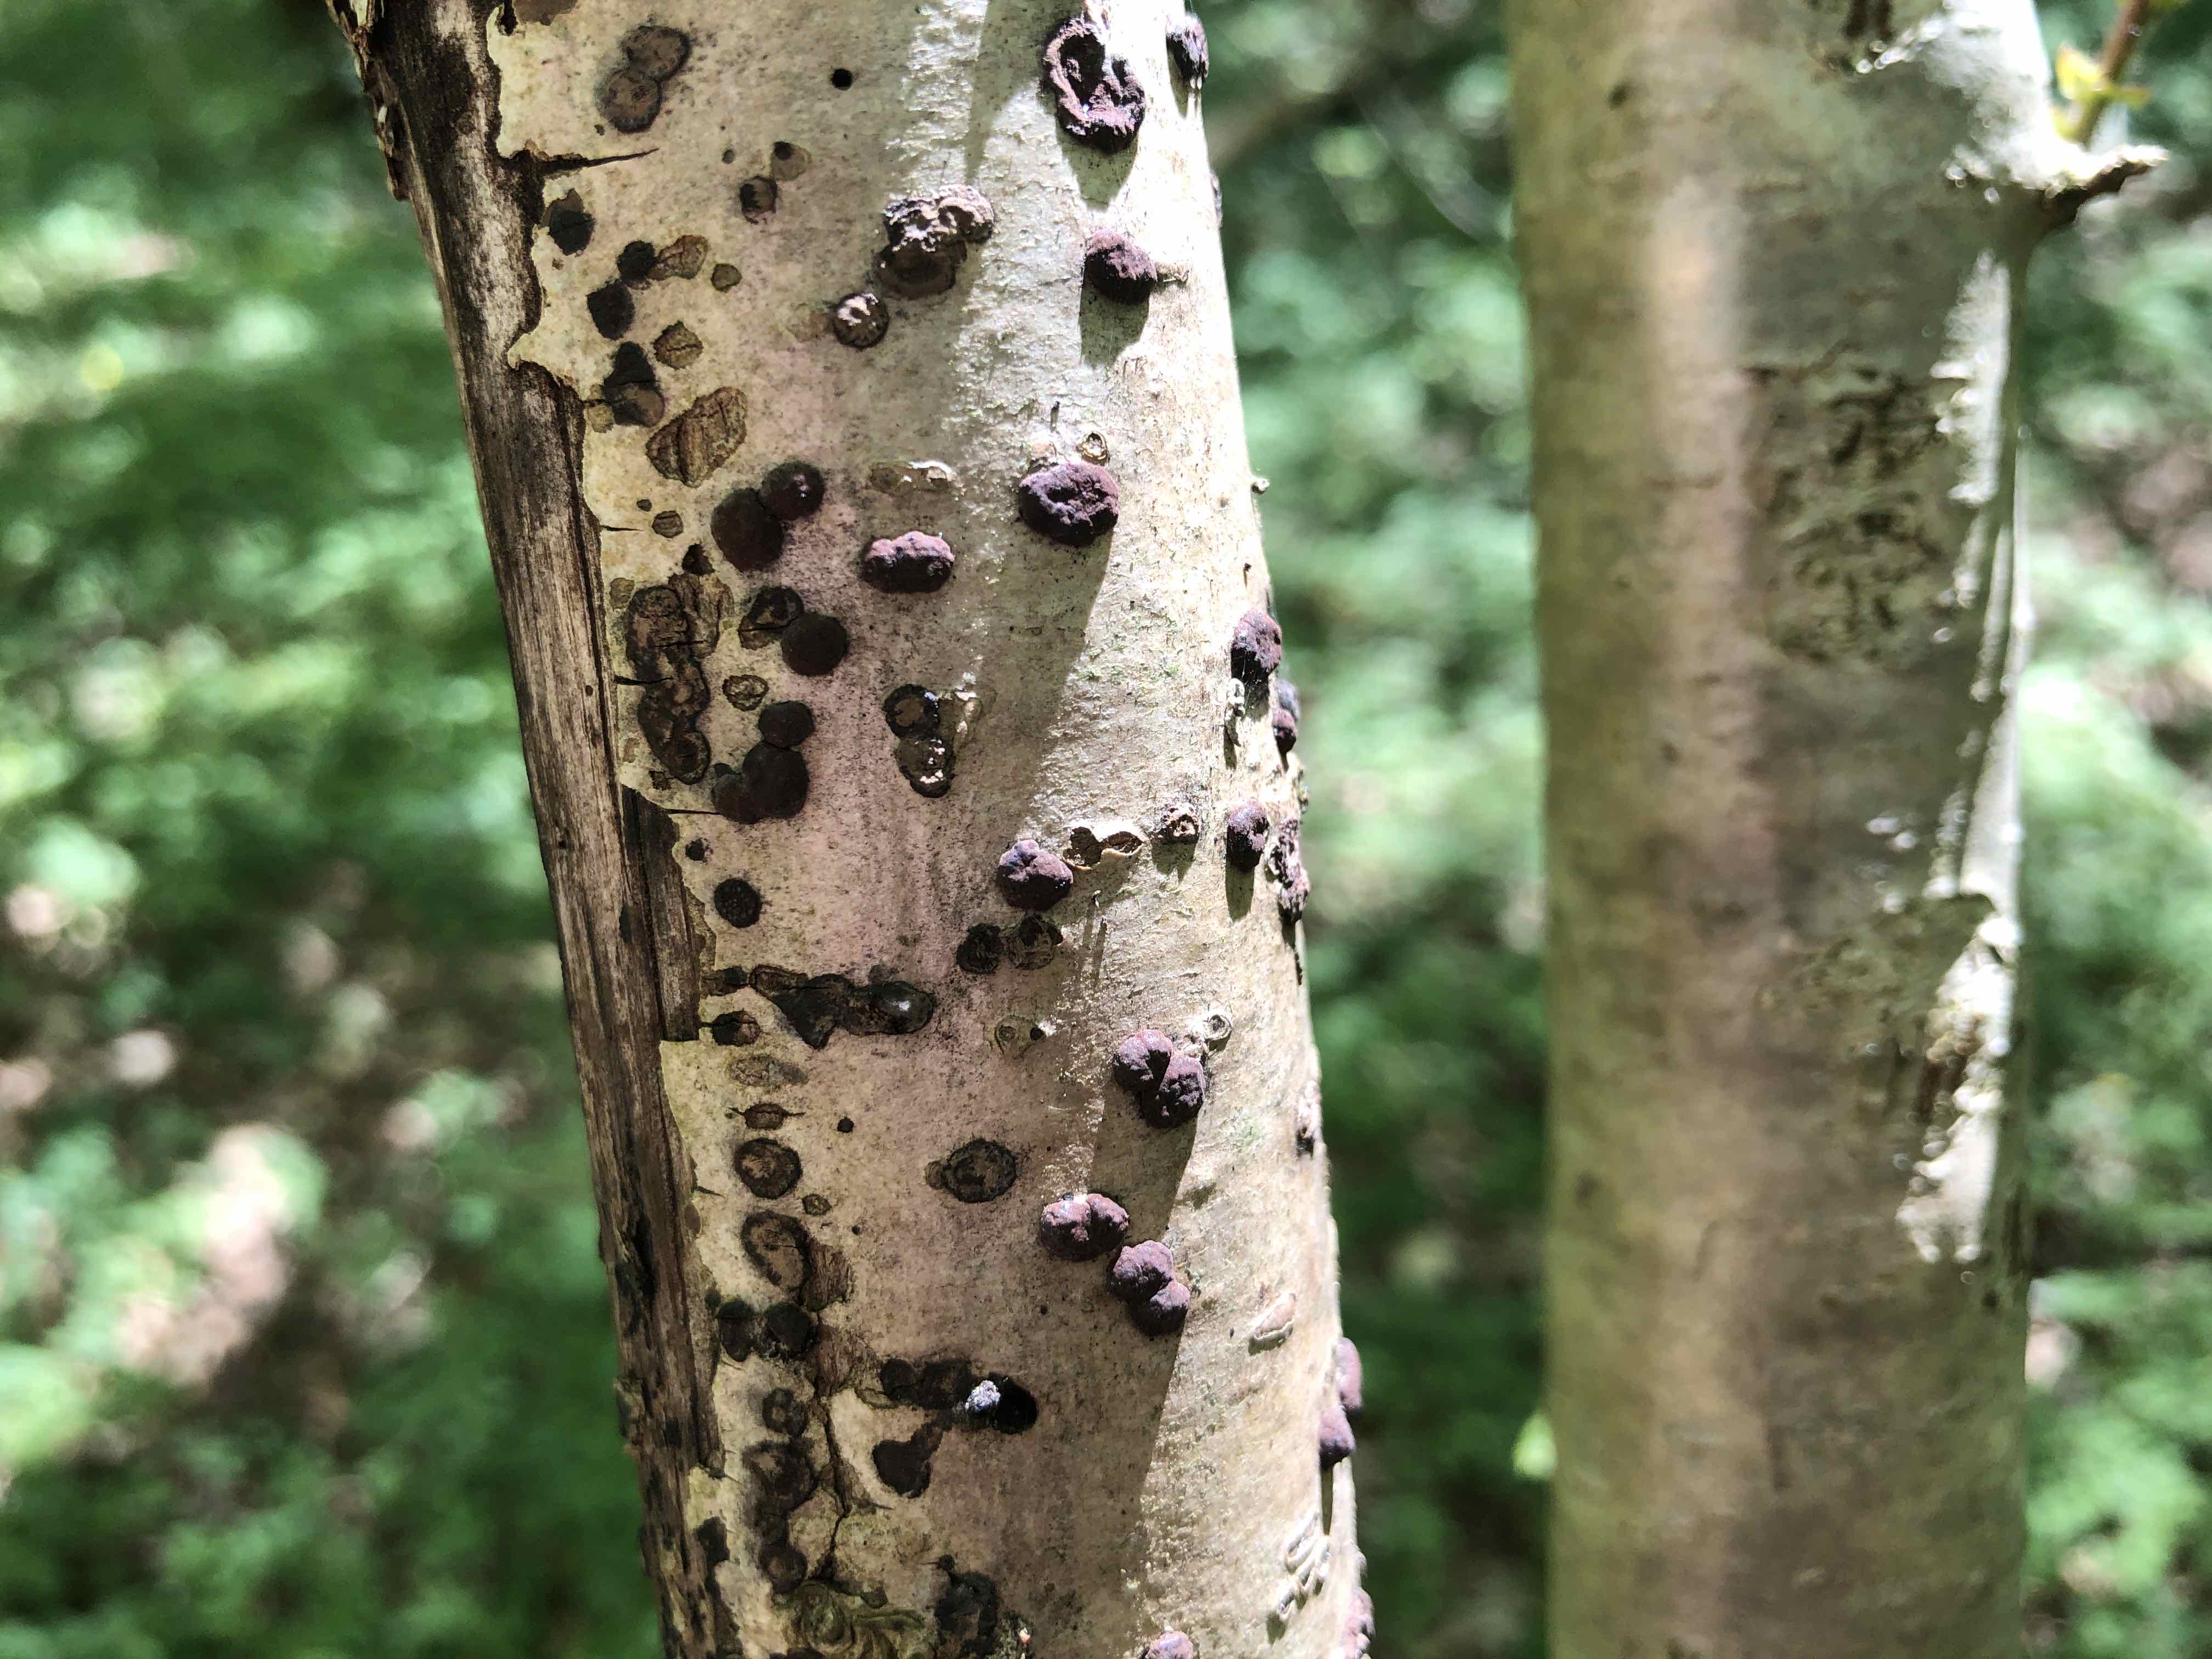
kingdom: Fungi
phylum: Ascomycota
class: Sordariomycetes
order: Xylariales
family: Hypoxylaceae
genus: Hypoxylon
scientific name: Hypoxylon fuscum
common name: kegleformet kulbær
